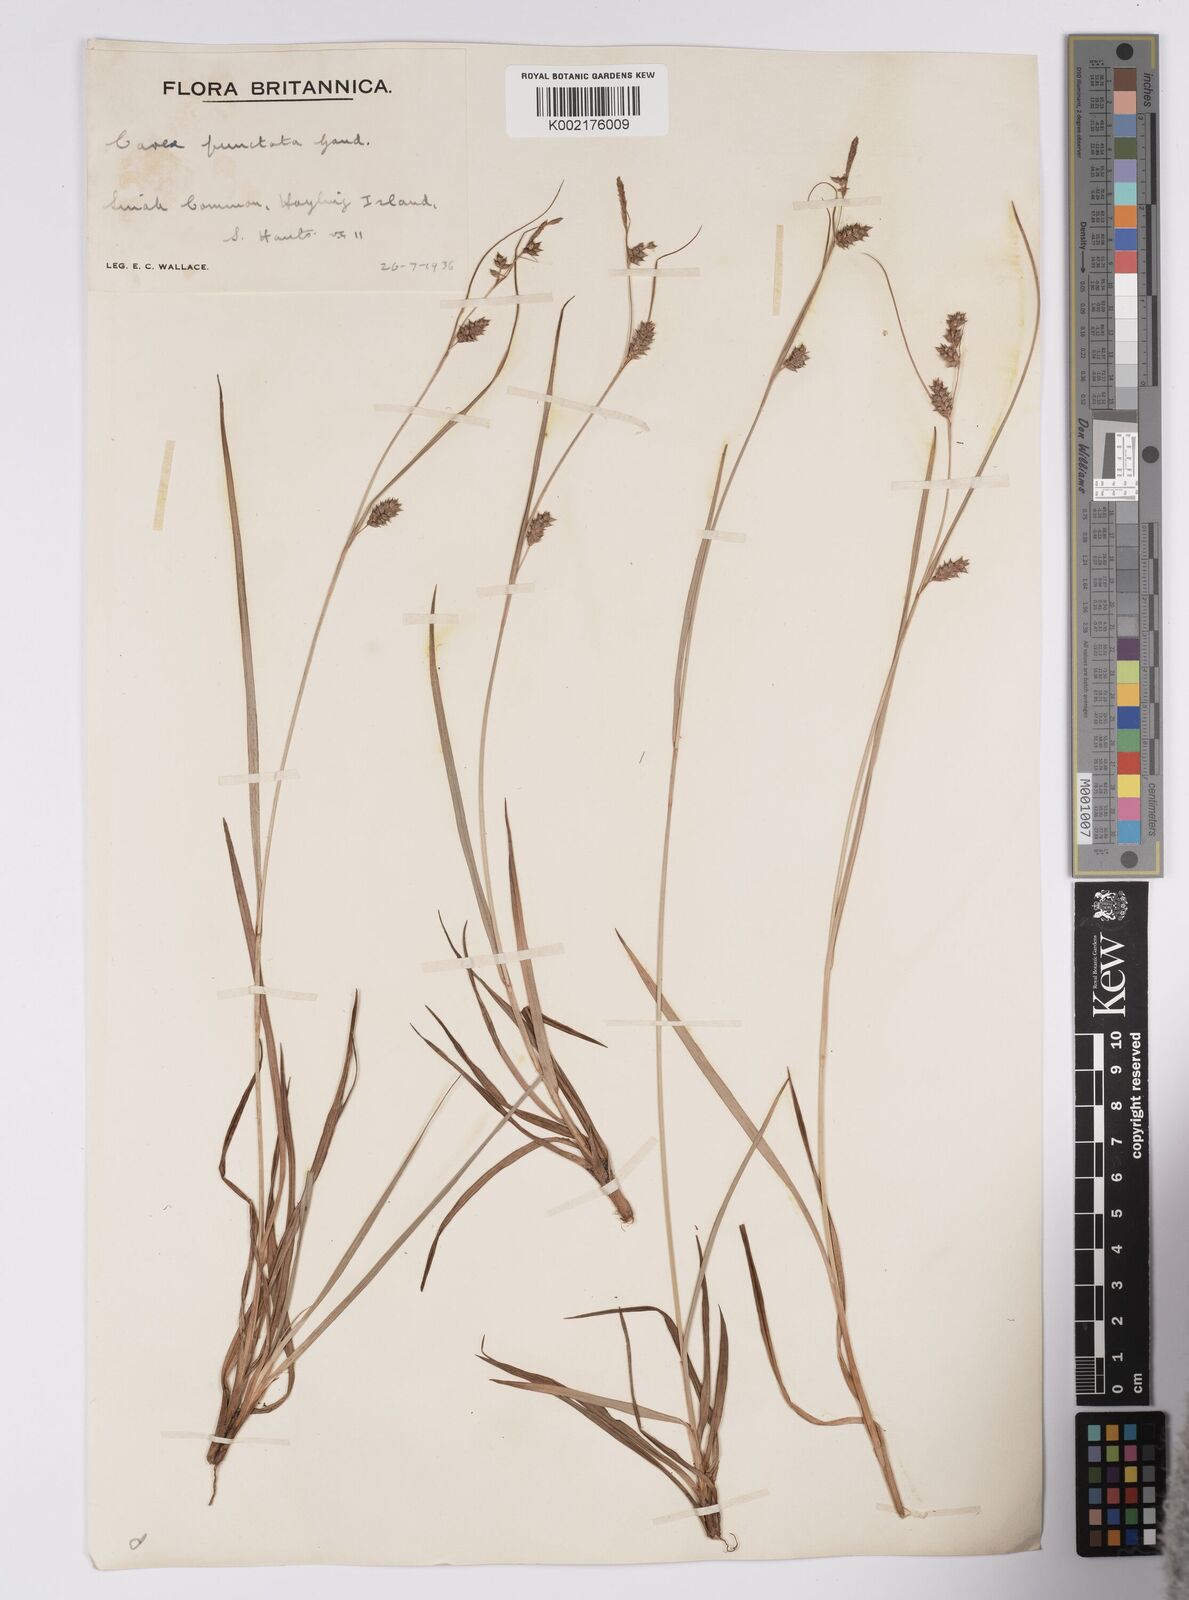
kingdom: Plantae
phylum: Tracheophyta
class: Liliopsida
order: Poales
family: Cyperaceae
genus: Carex
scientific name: Carex punctata
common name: Dotted sedge
